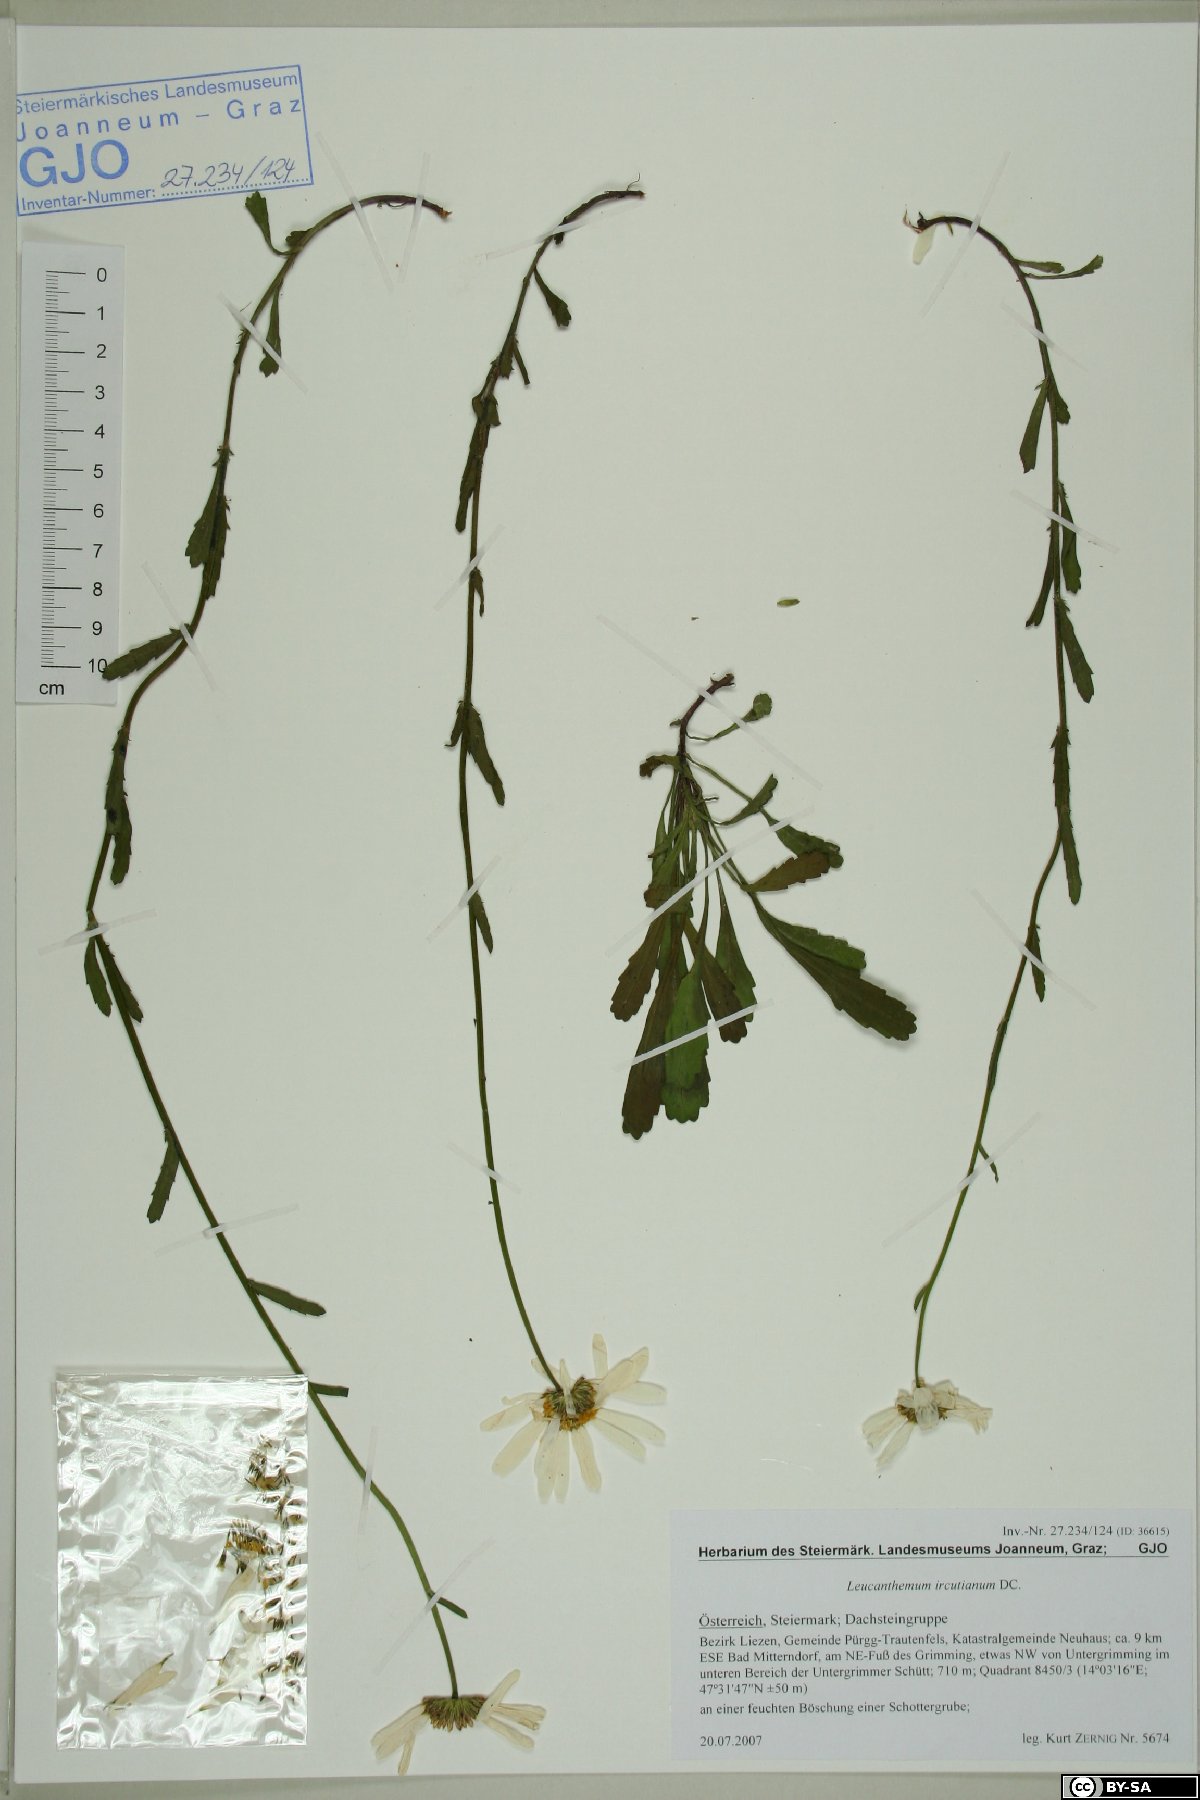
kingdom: Plantae
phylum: Tracheophyta
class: Magnoliopsida
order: Asterales
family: Asteraceae
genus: Leucanthemum
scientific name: Leucanthemum ircutianum
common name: Daisy
